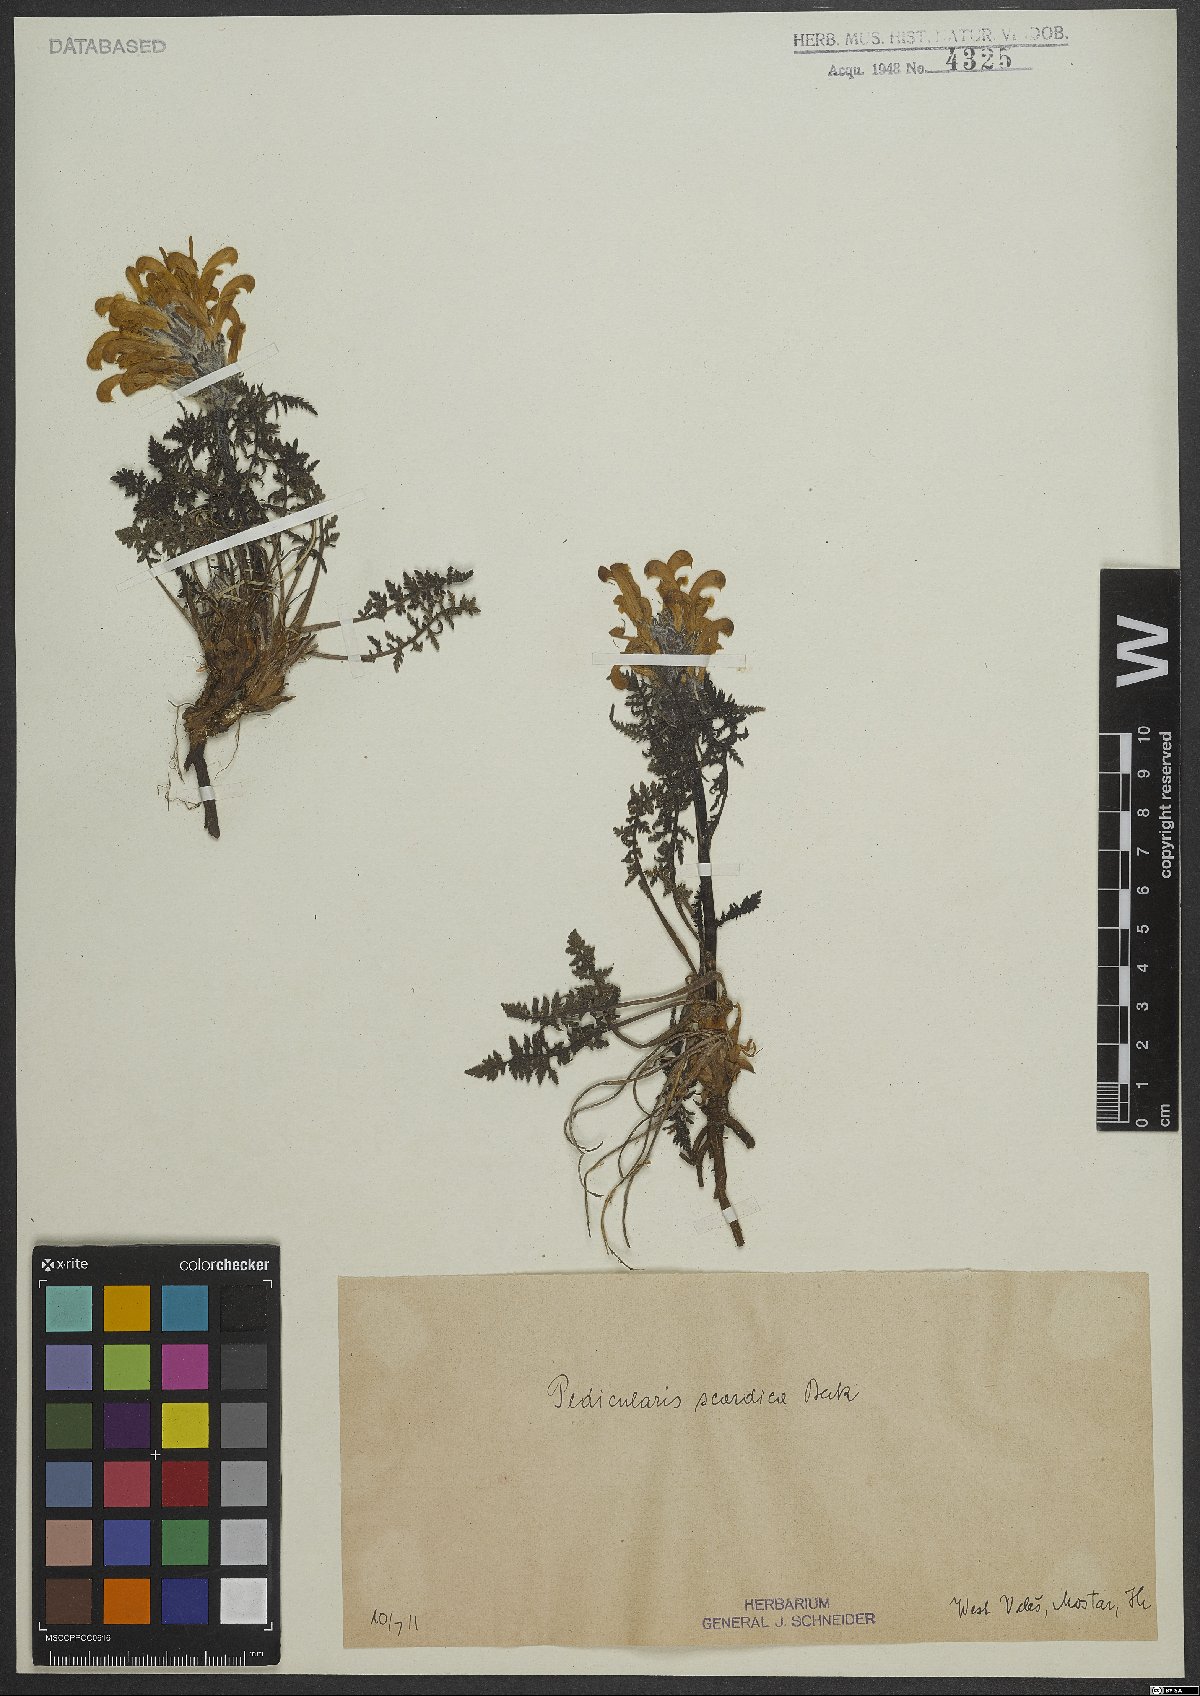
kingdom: Plantae
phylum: Tracheophyta
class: Magnoliopsida
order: Lamiales
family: Orobanchaceae
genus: Pedicularis
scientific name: Pedicularis petiolaris
